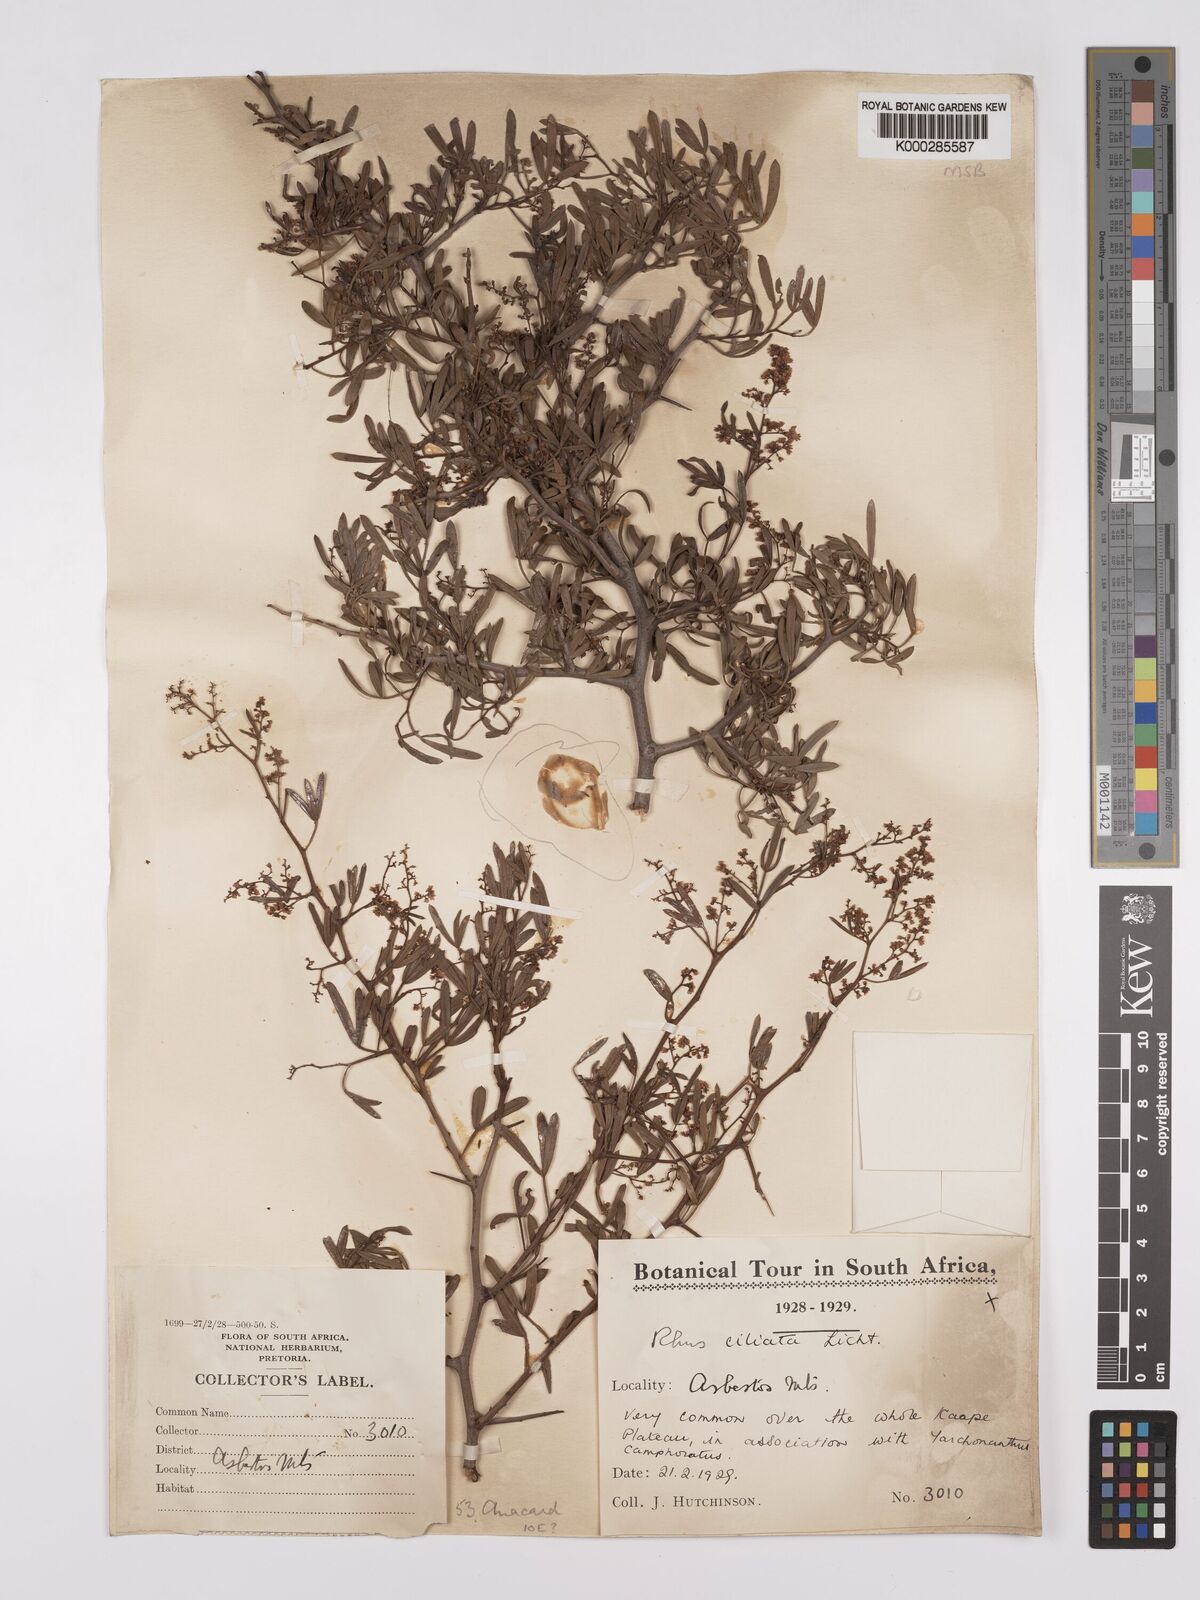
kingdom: Plantae
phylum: Tracheophyta
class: Magnoliopsida
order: Sapindales
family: Anacardiaceae
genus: Searsia
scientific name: Searsia ciliata
